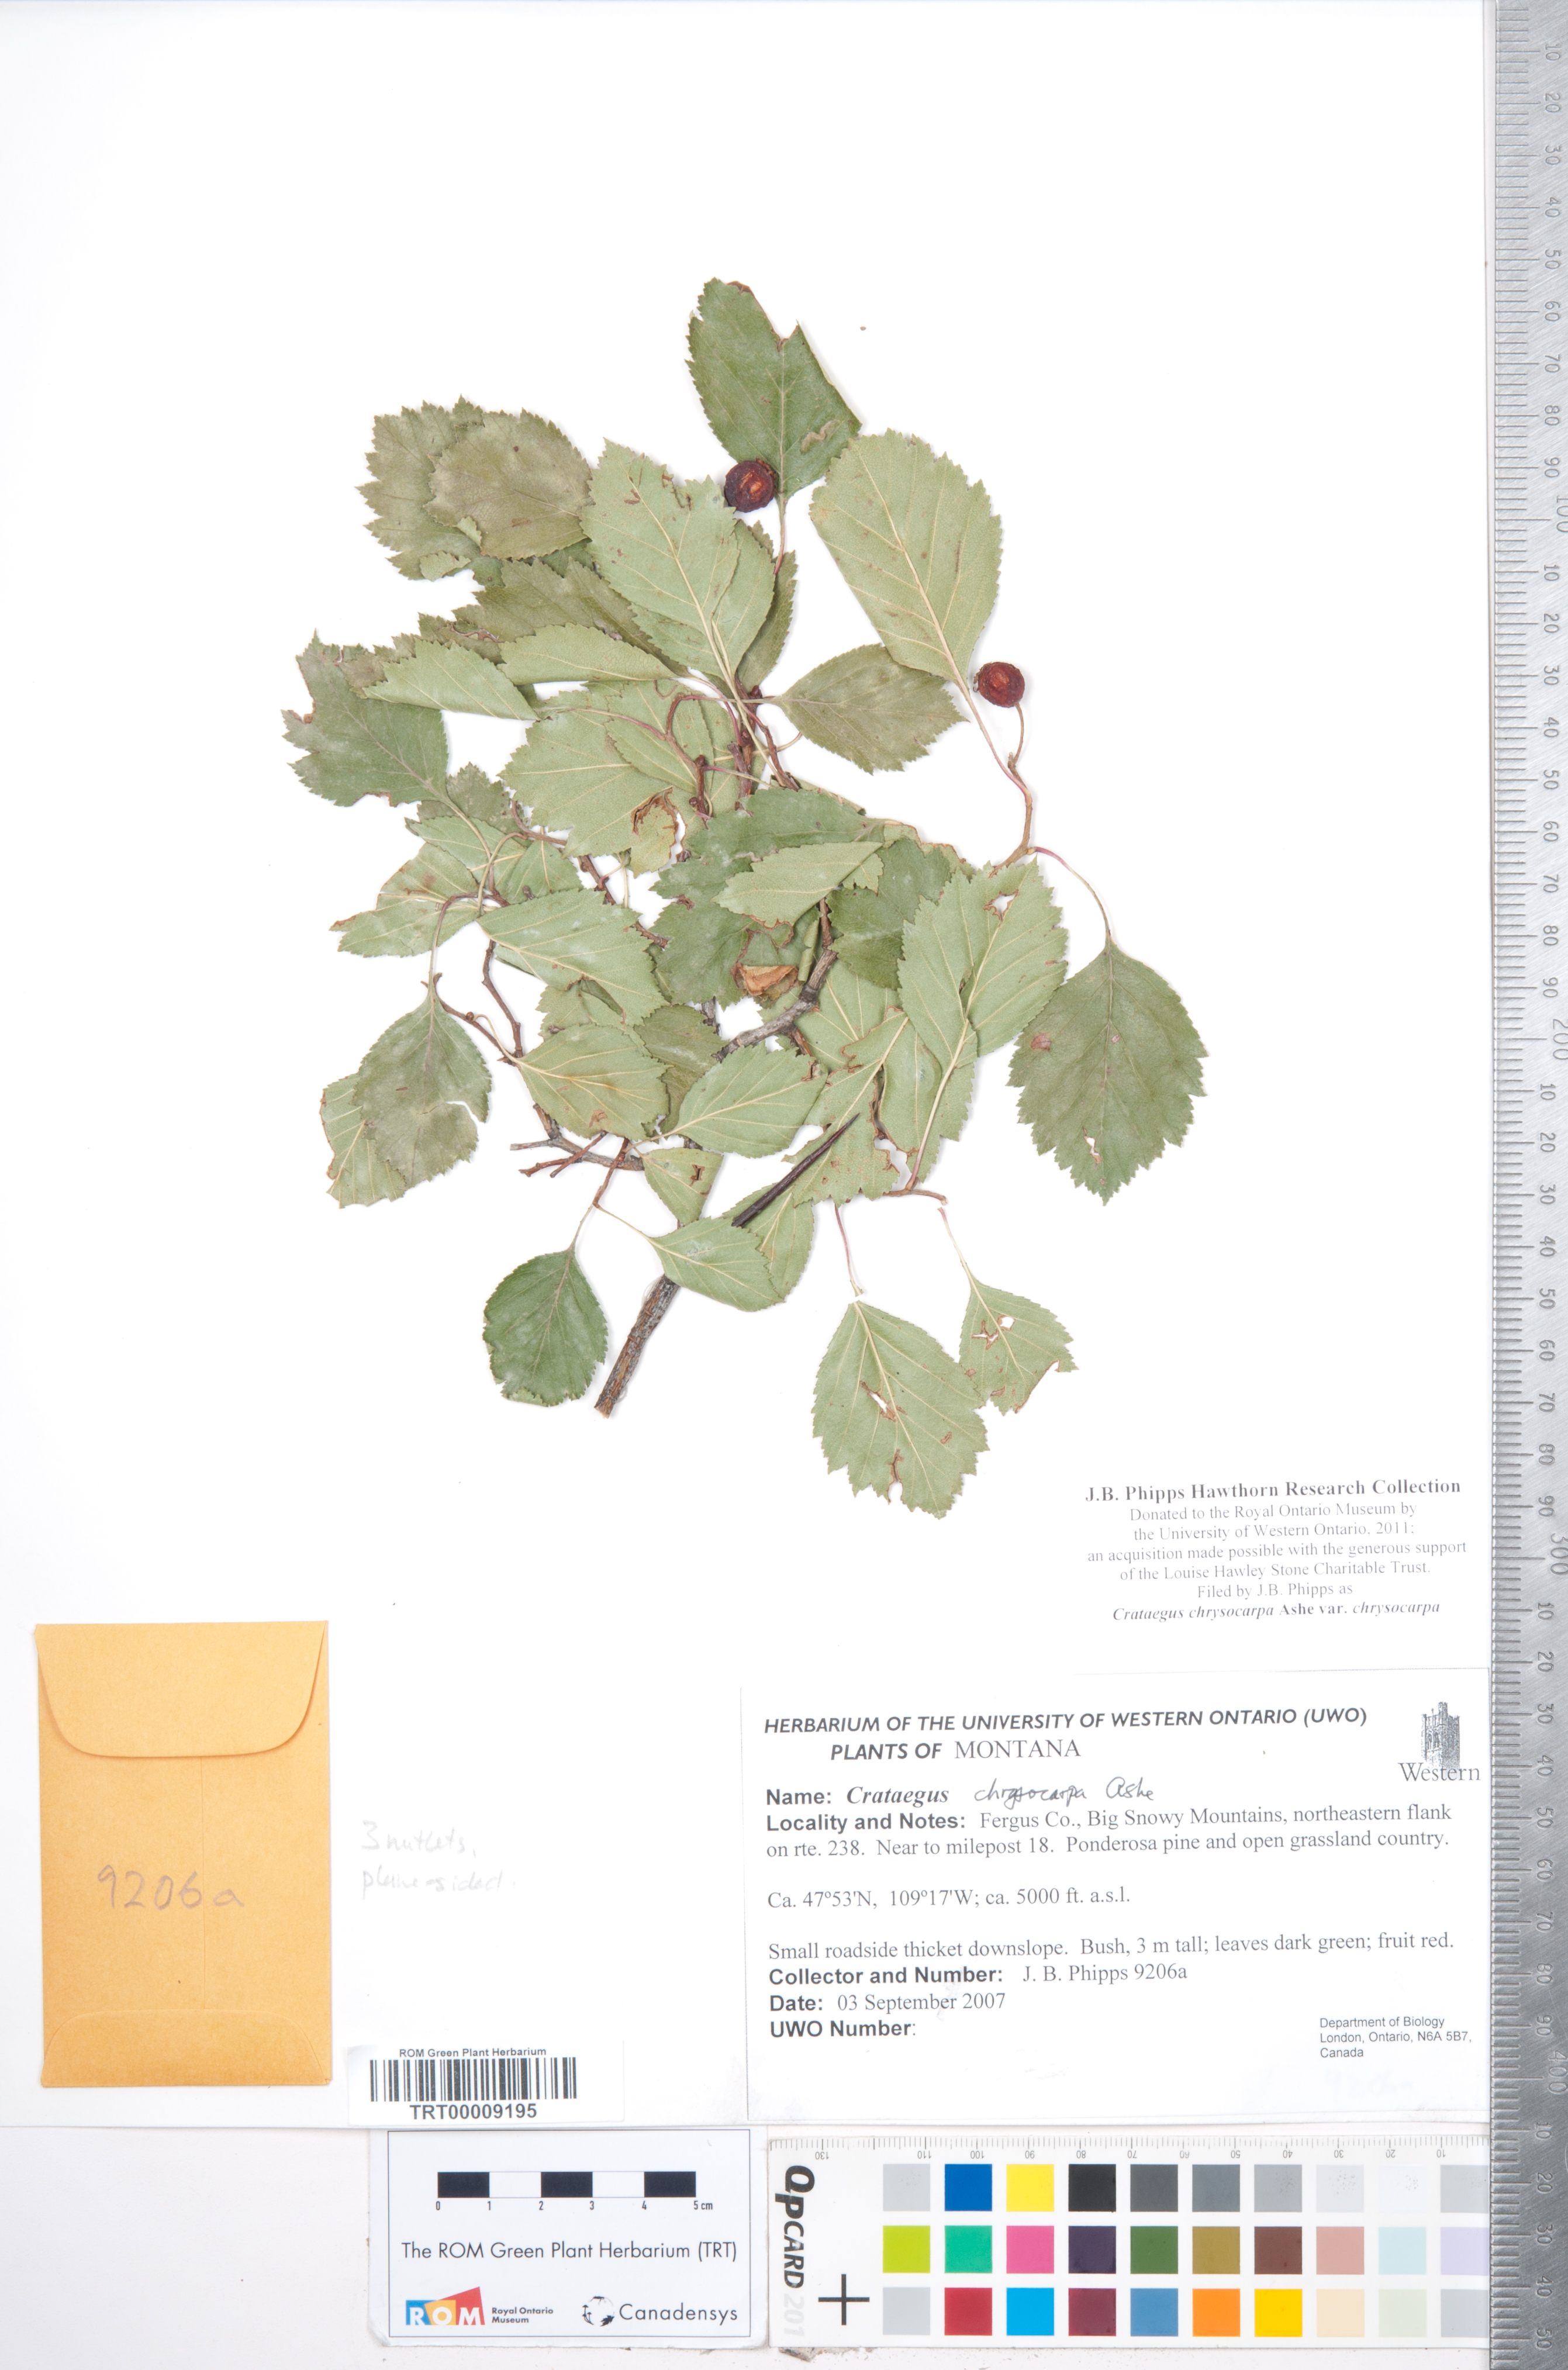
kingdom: Plantae
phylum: Tracheophyta
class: Magnoliopsida
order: Rosales
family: Rosaceae
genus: Crataegus
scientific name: Crataegus chrysocarpa
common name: Fire-berry hawthorn
